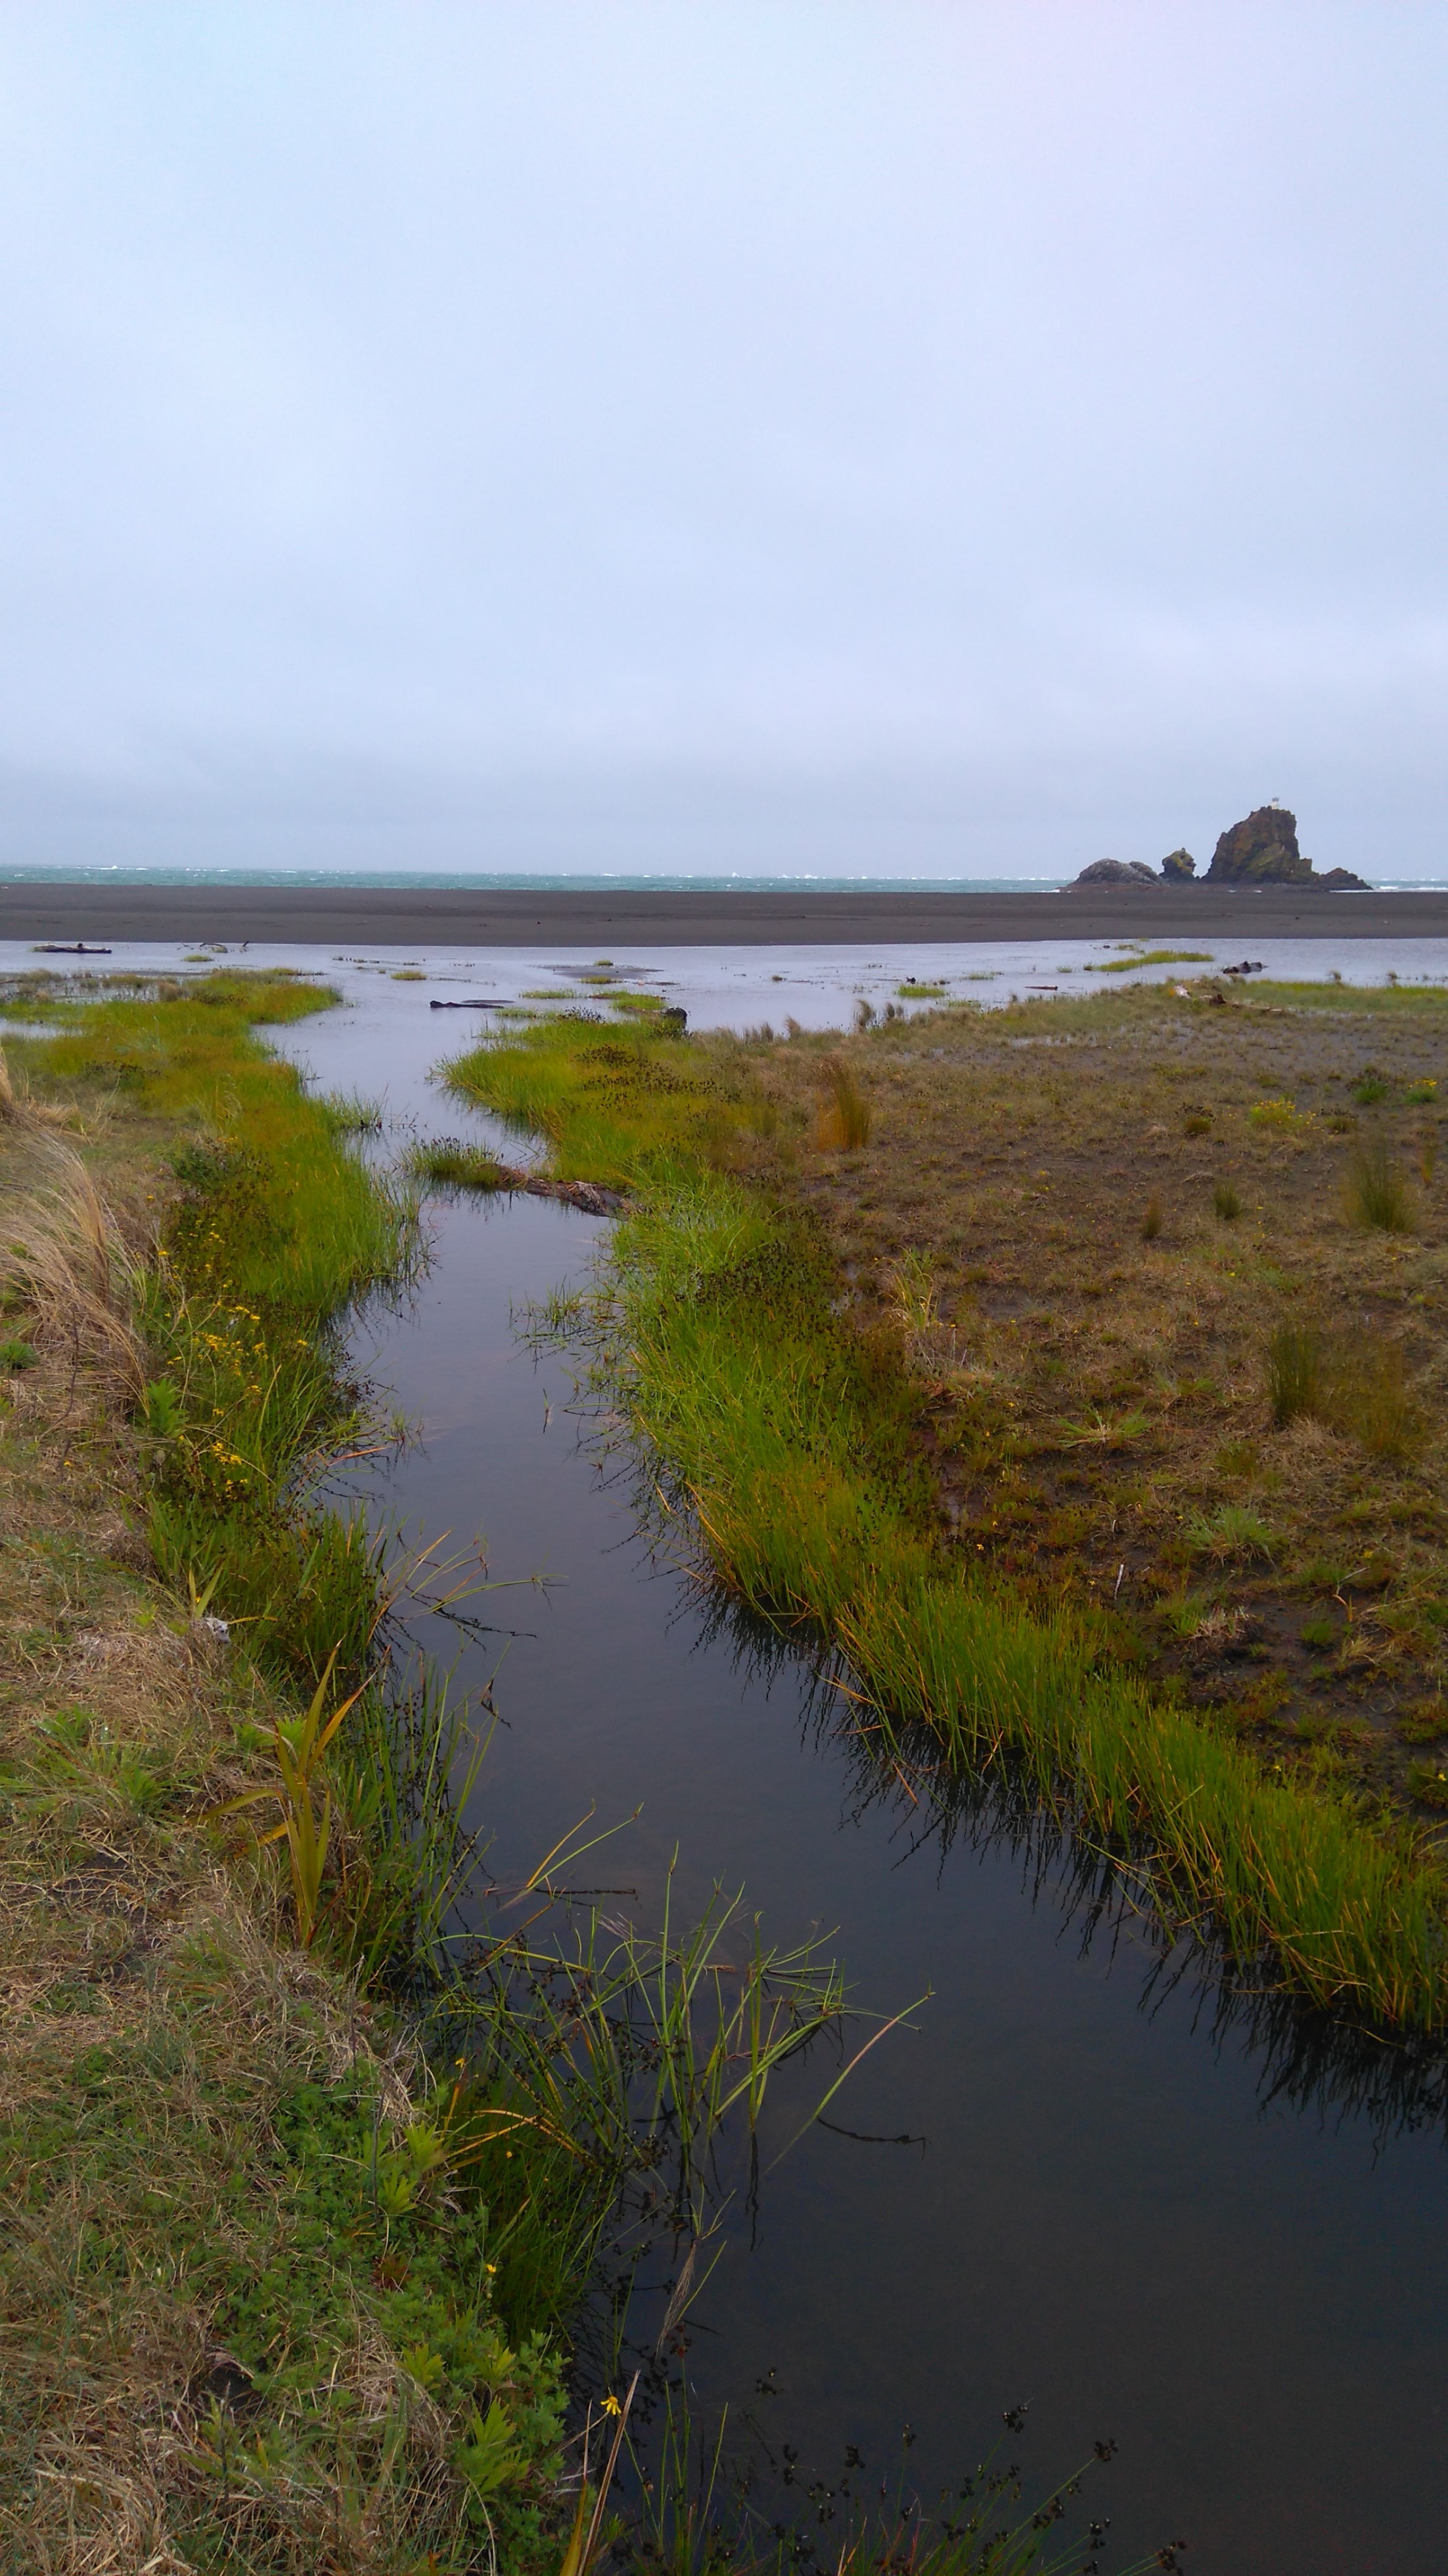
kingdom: Animalia
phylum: Arthropoda
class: Insecta
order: Odonata
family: Coenagrionidae
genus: Xanthocnemis
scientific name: Xanthocnemis
